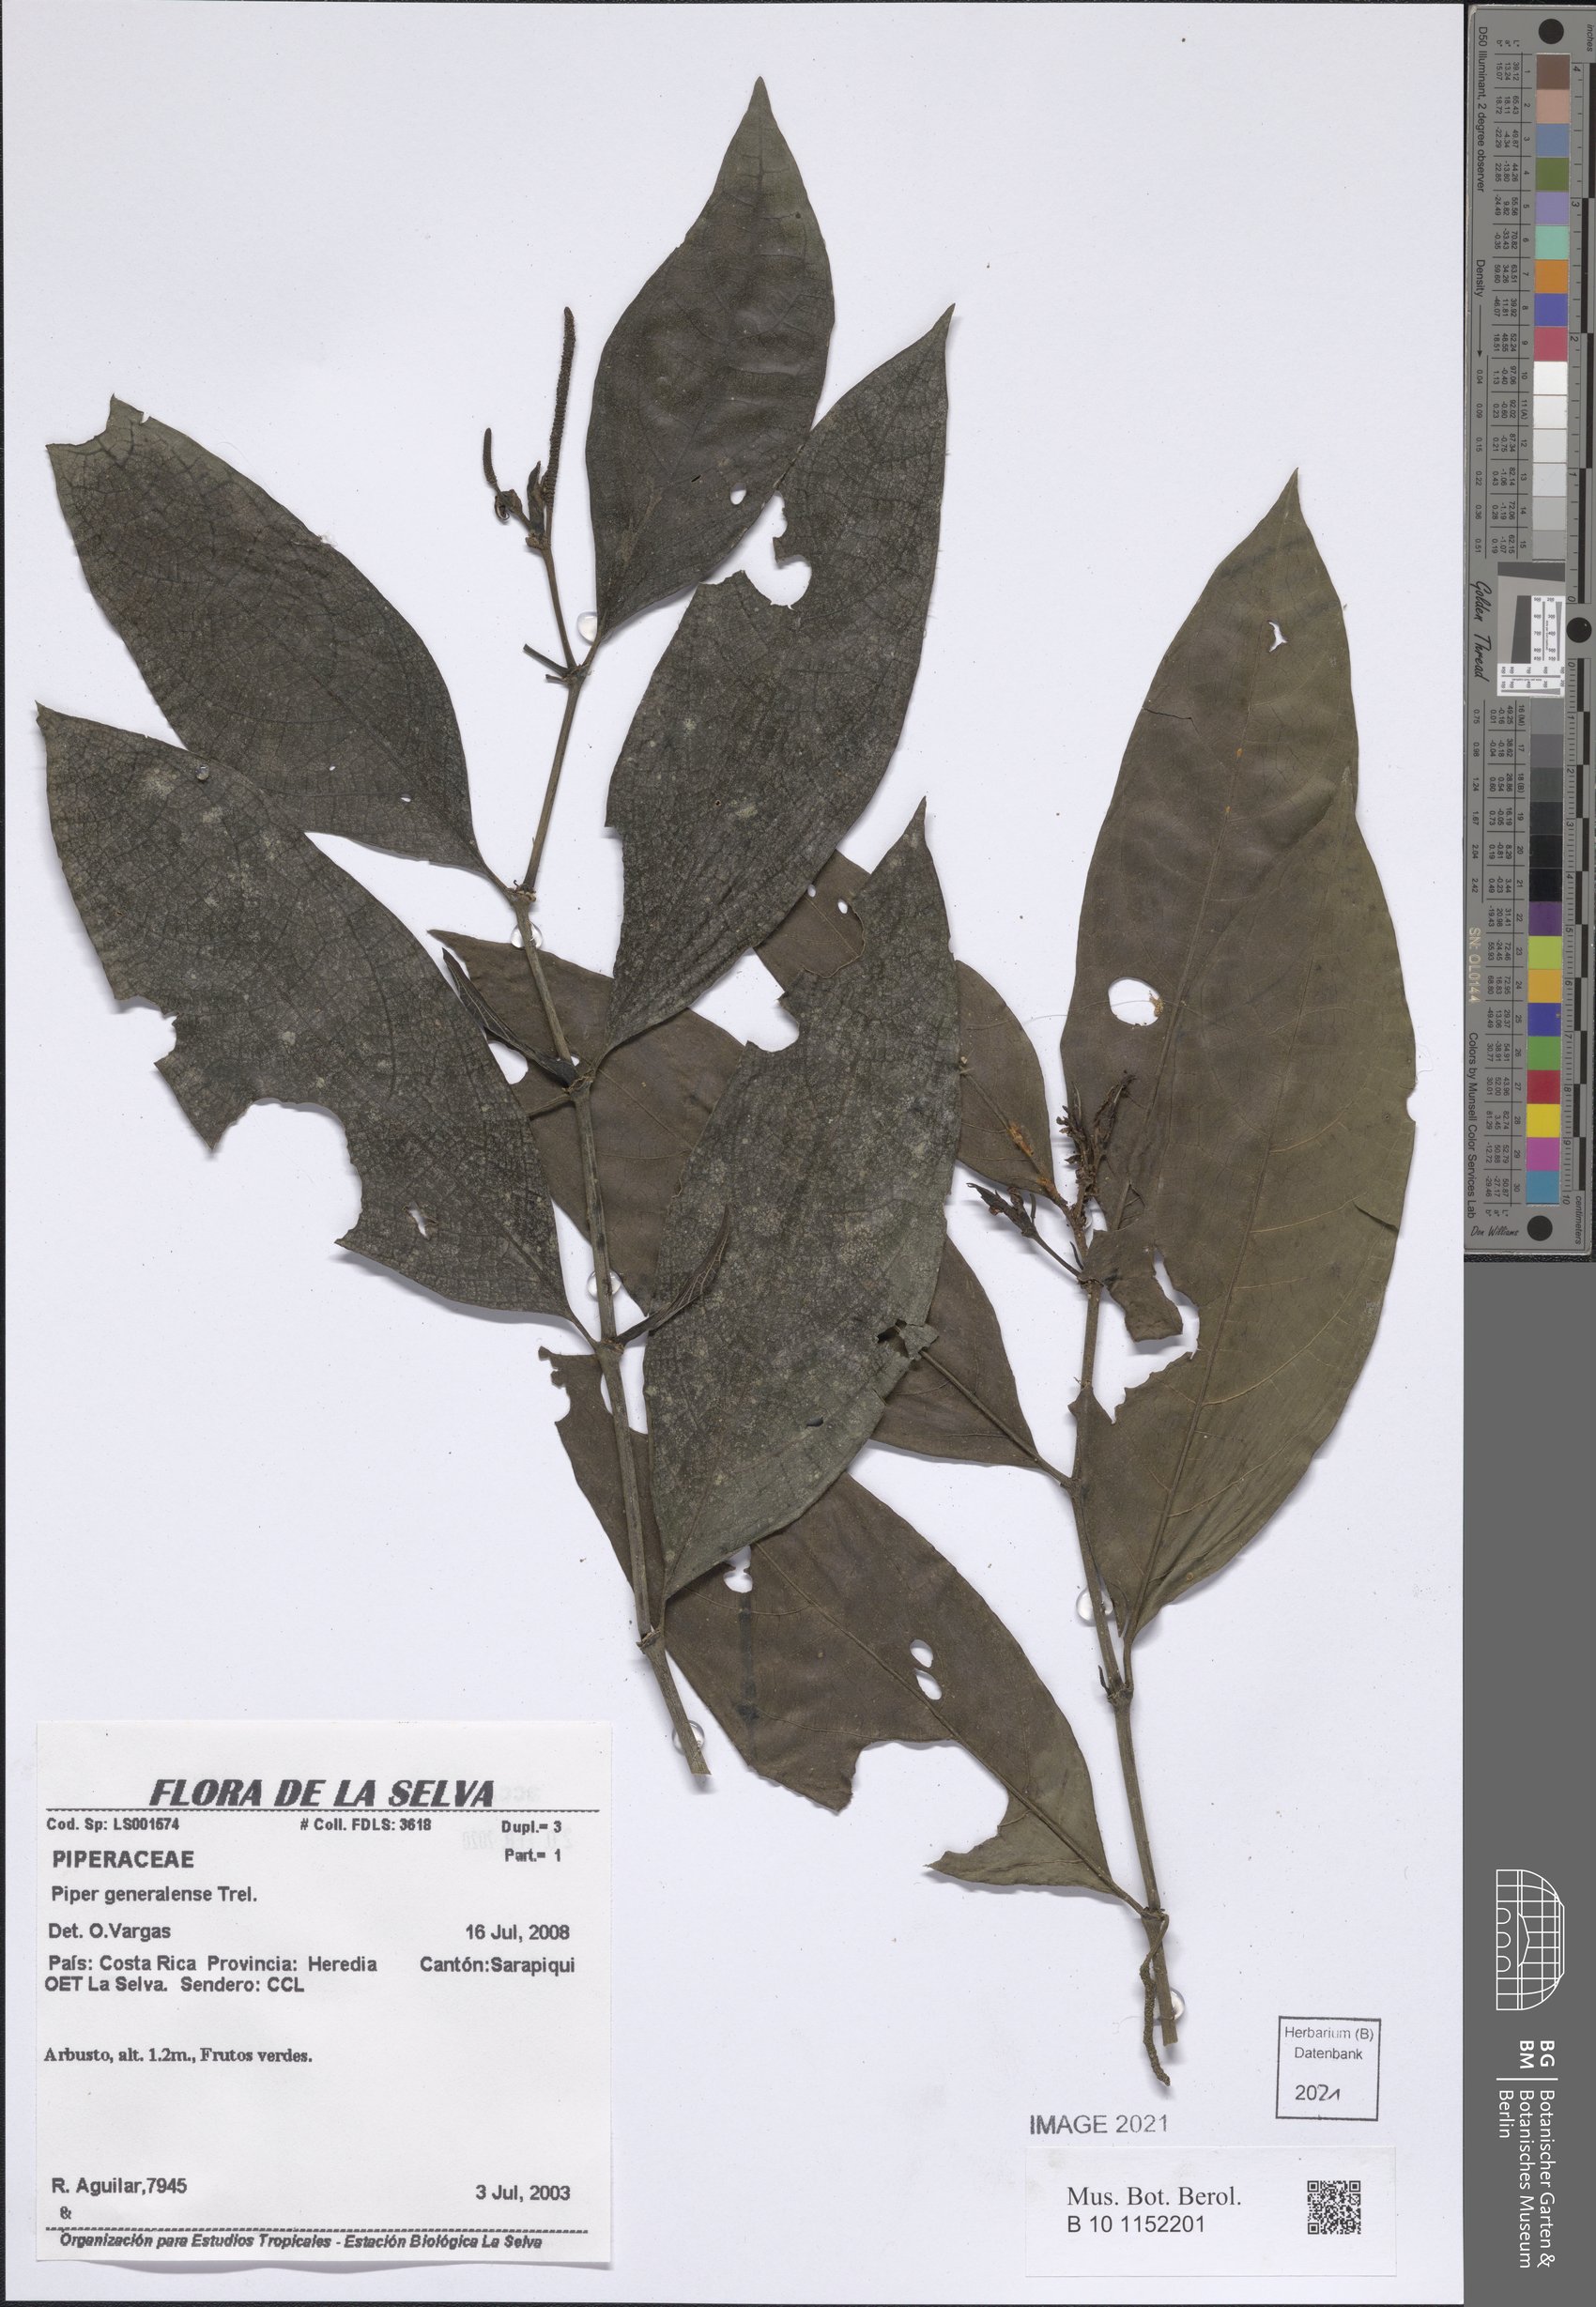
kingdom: Plantae
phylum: Tracheophyta
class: Magnoliopsida
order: Piperales
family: Piperaceae
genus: Piper
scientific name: Piper
